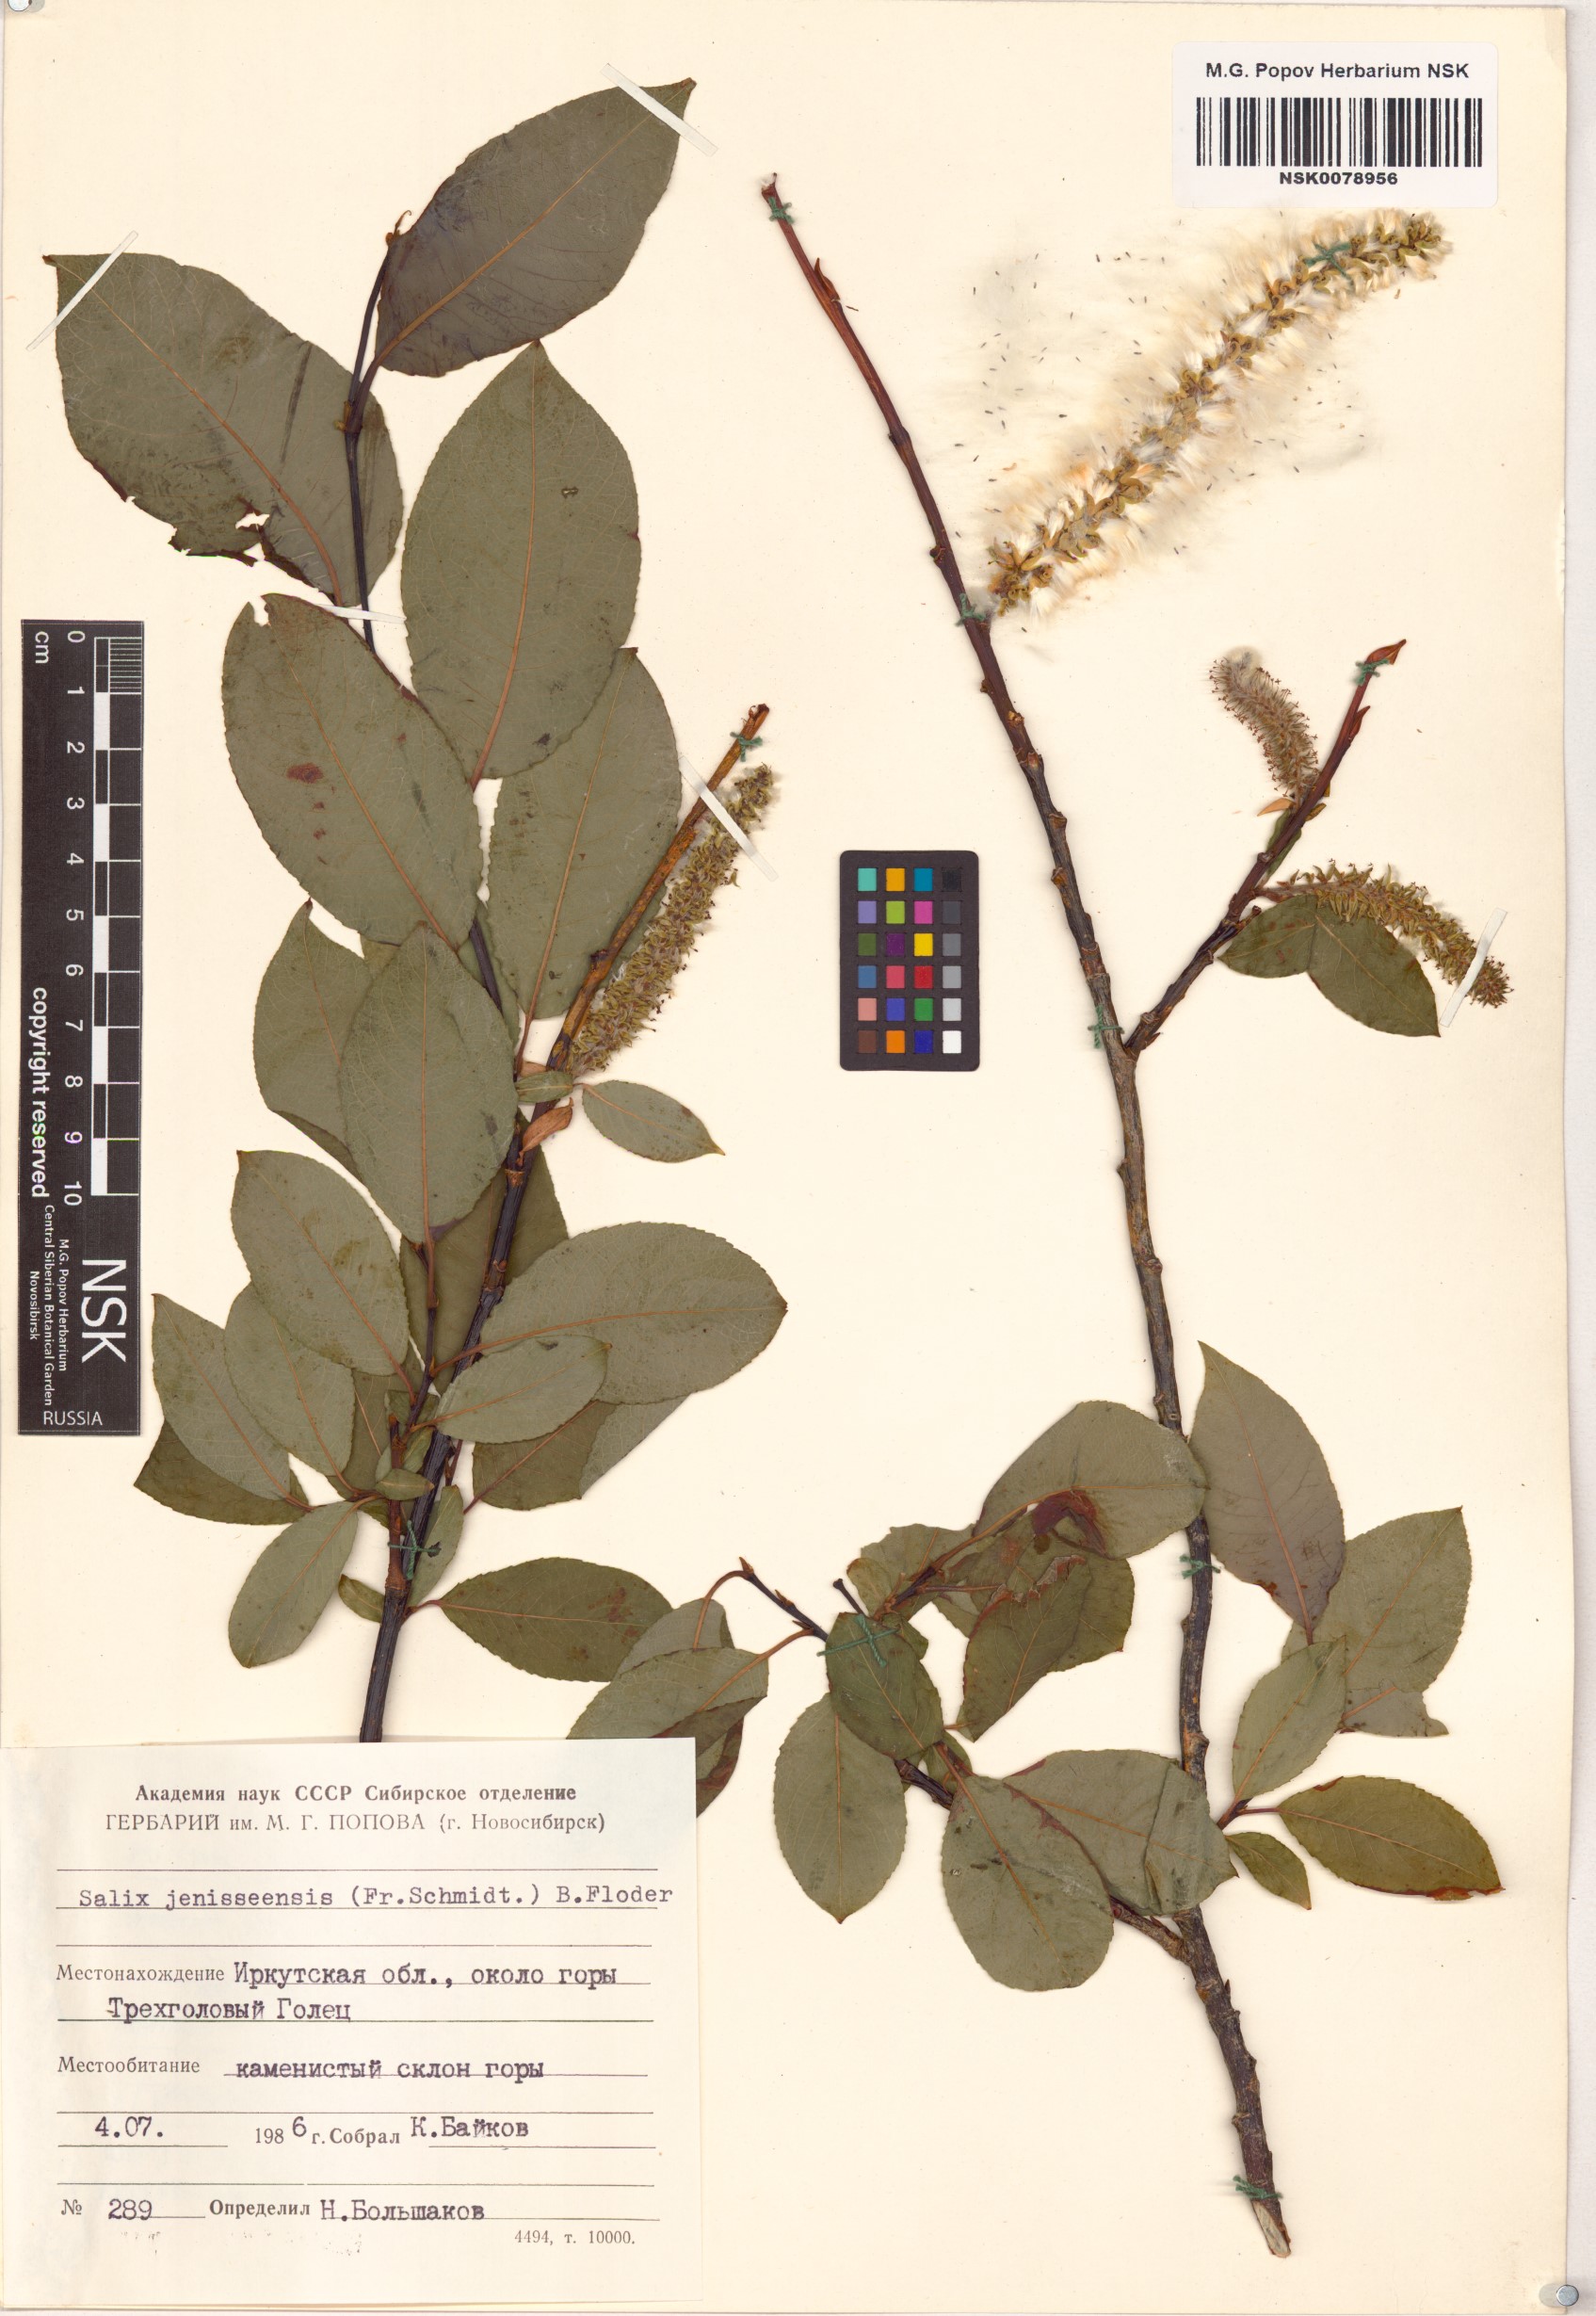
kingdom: Plantae
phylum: Tracheophyta
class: Magnoliopsida
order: Malpighiales
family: Salicaceae
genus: Salix
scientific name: Salix jenisseensis
